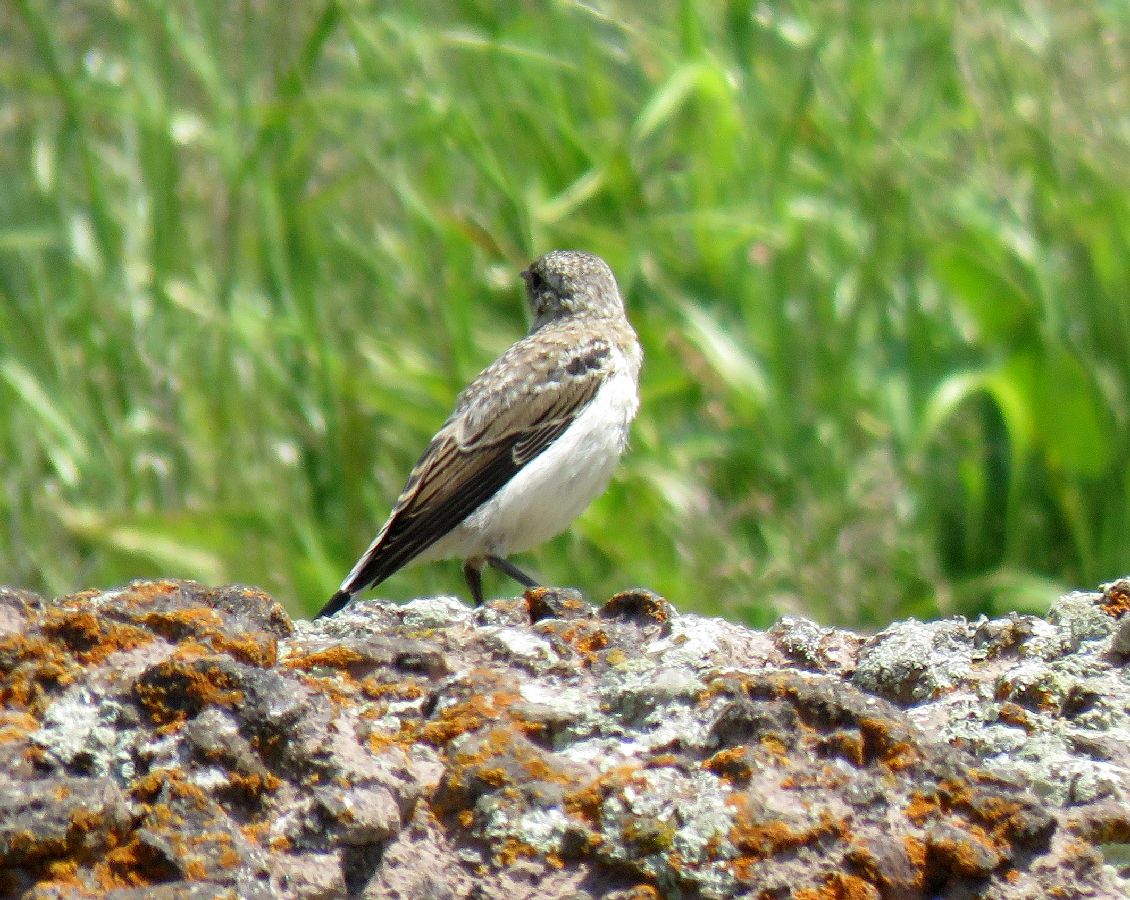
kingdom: Animalia
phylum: Chordata
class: Aves
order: Passeriformes
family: Muscicapidae
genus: Oenanthe
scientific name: Oenanthe oenanthe
